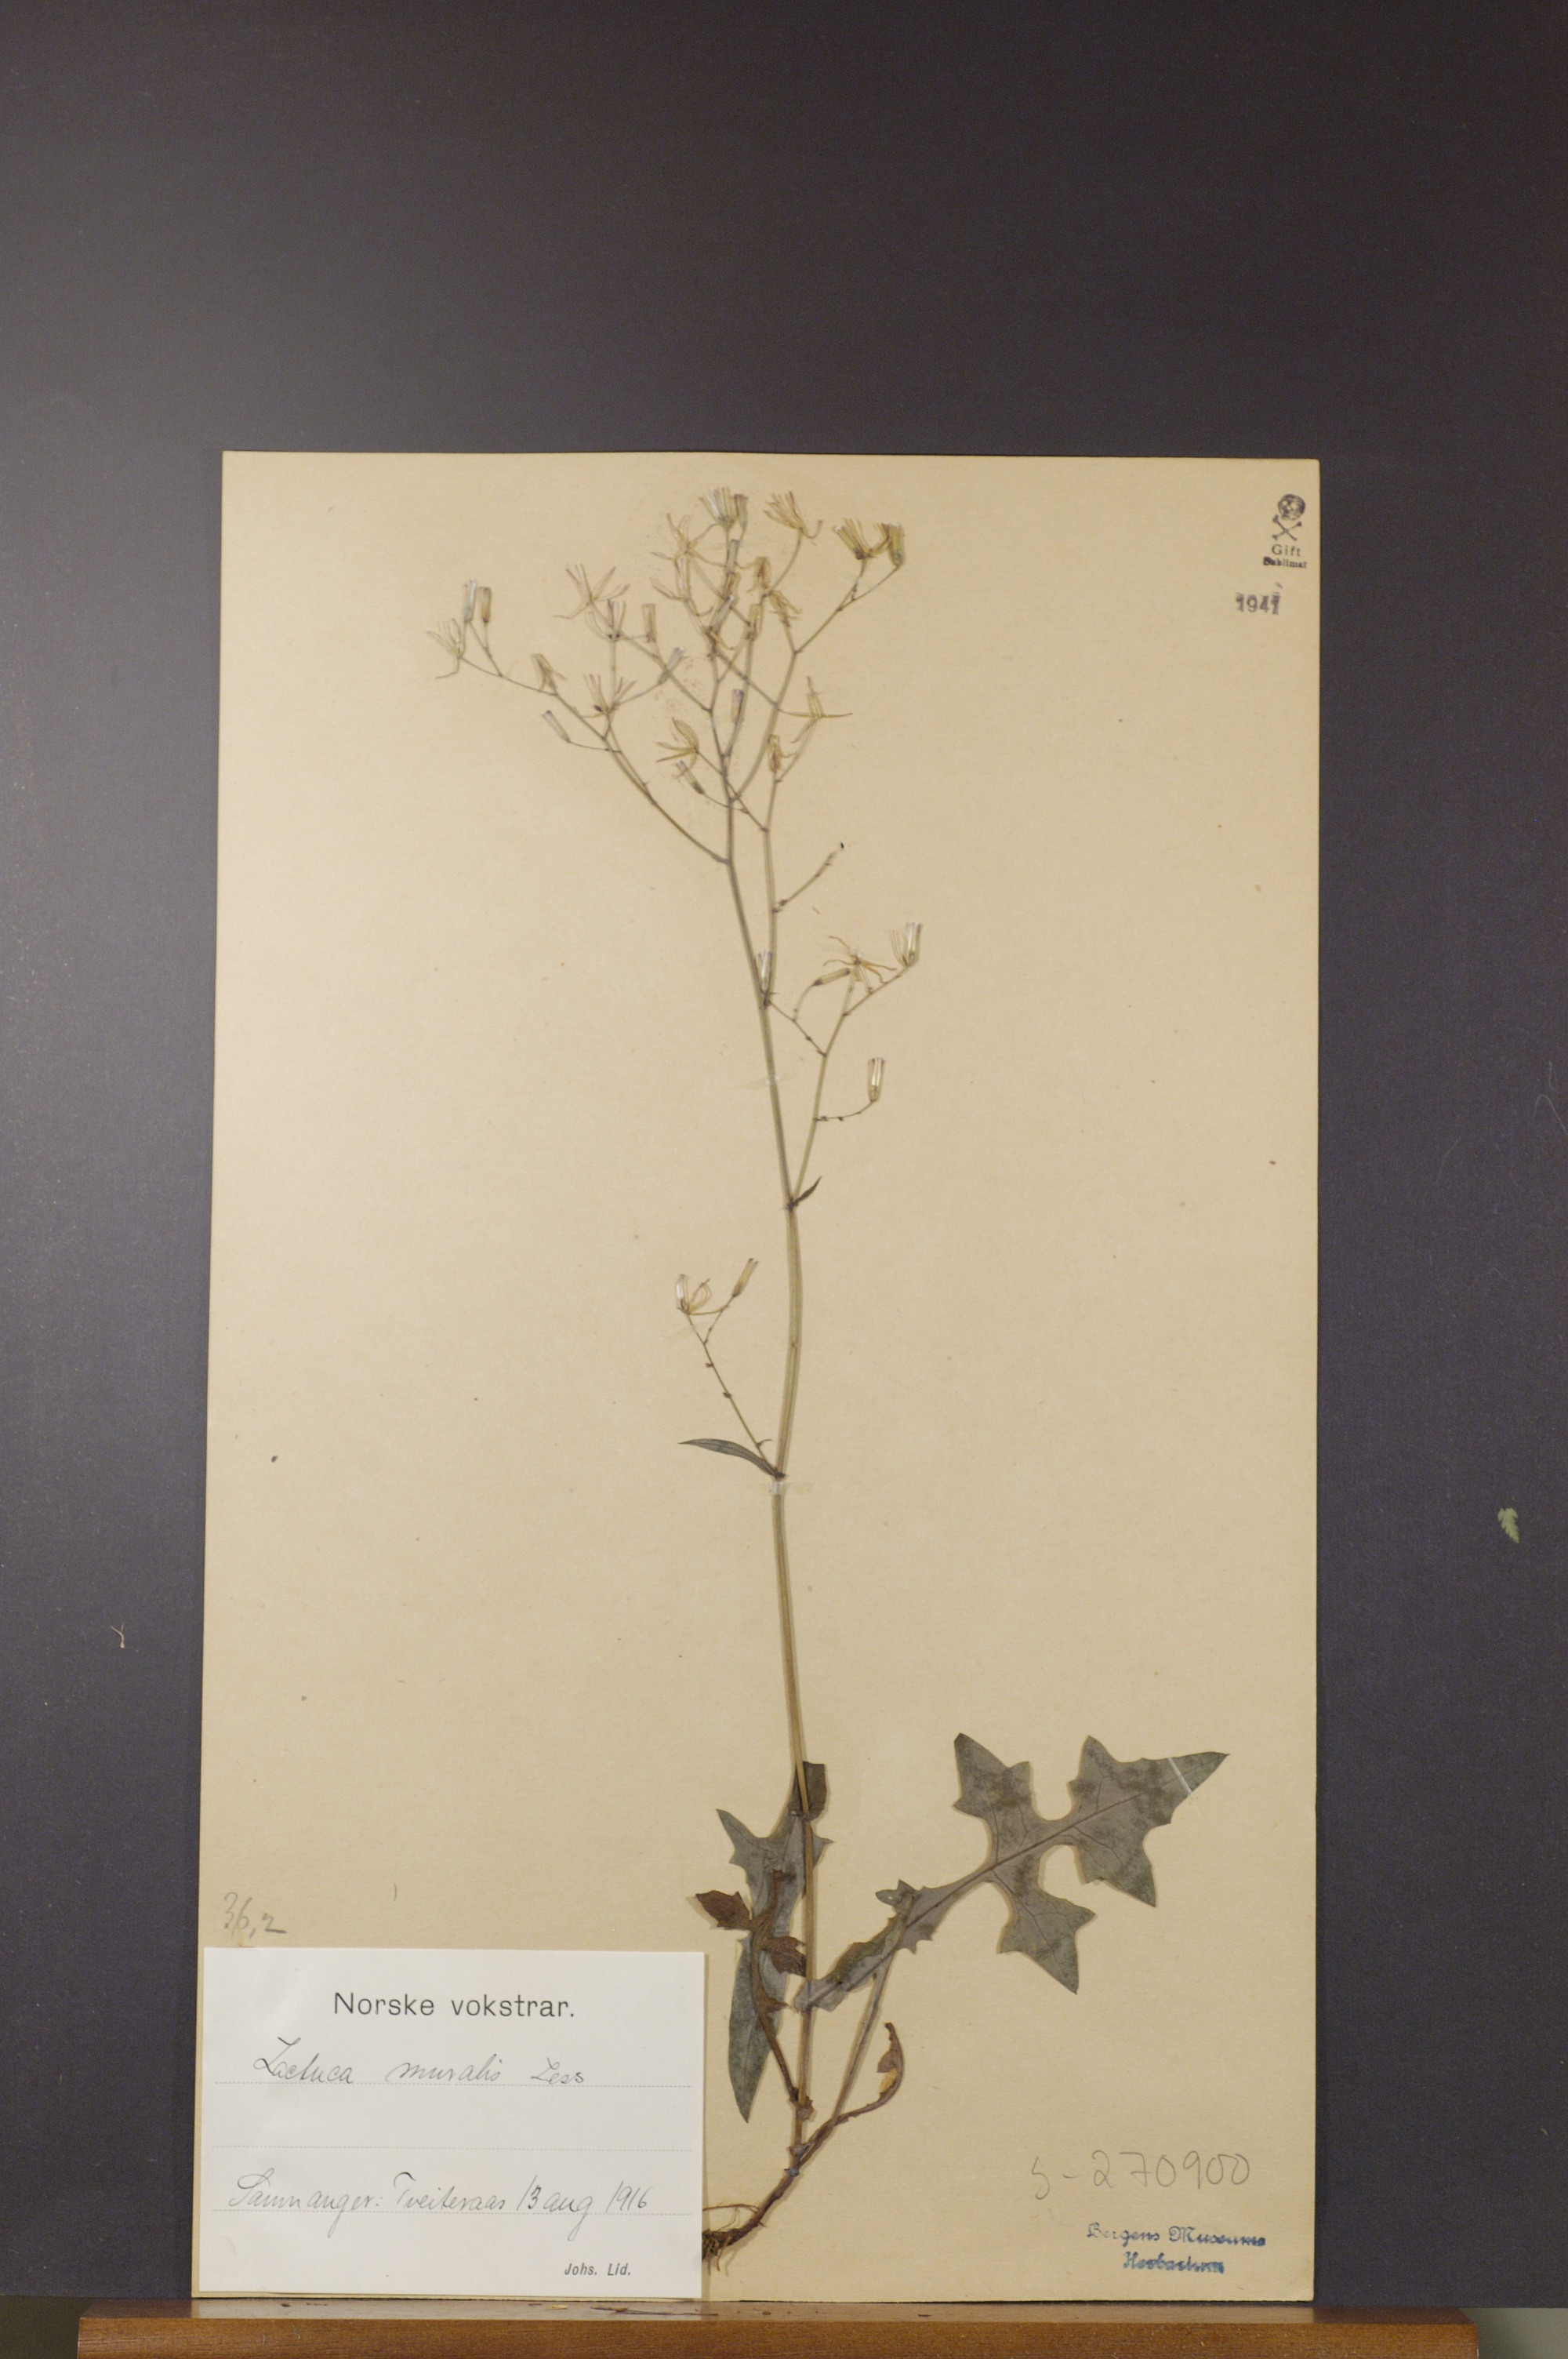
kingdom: Plantae
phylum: Tracheophyta
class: Magnoliopsida
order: Asterales
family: Asteraceae
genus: Mycelis
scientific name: Mycelis muralis
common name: Wall lettuce
